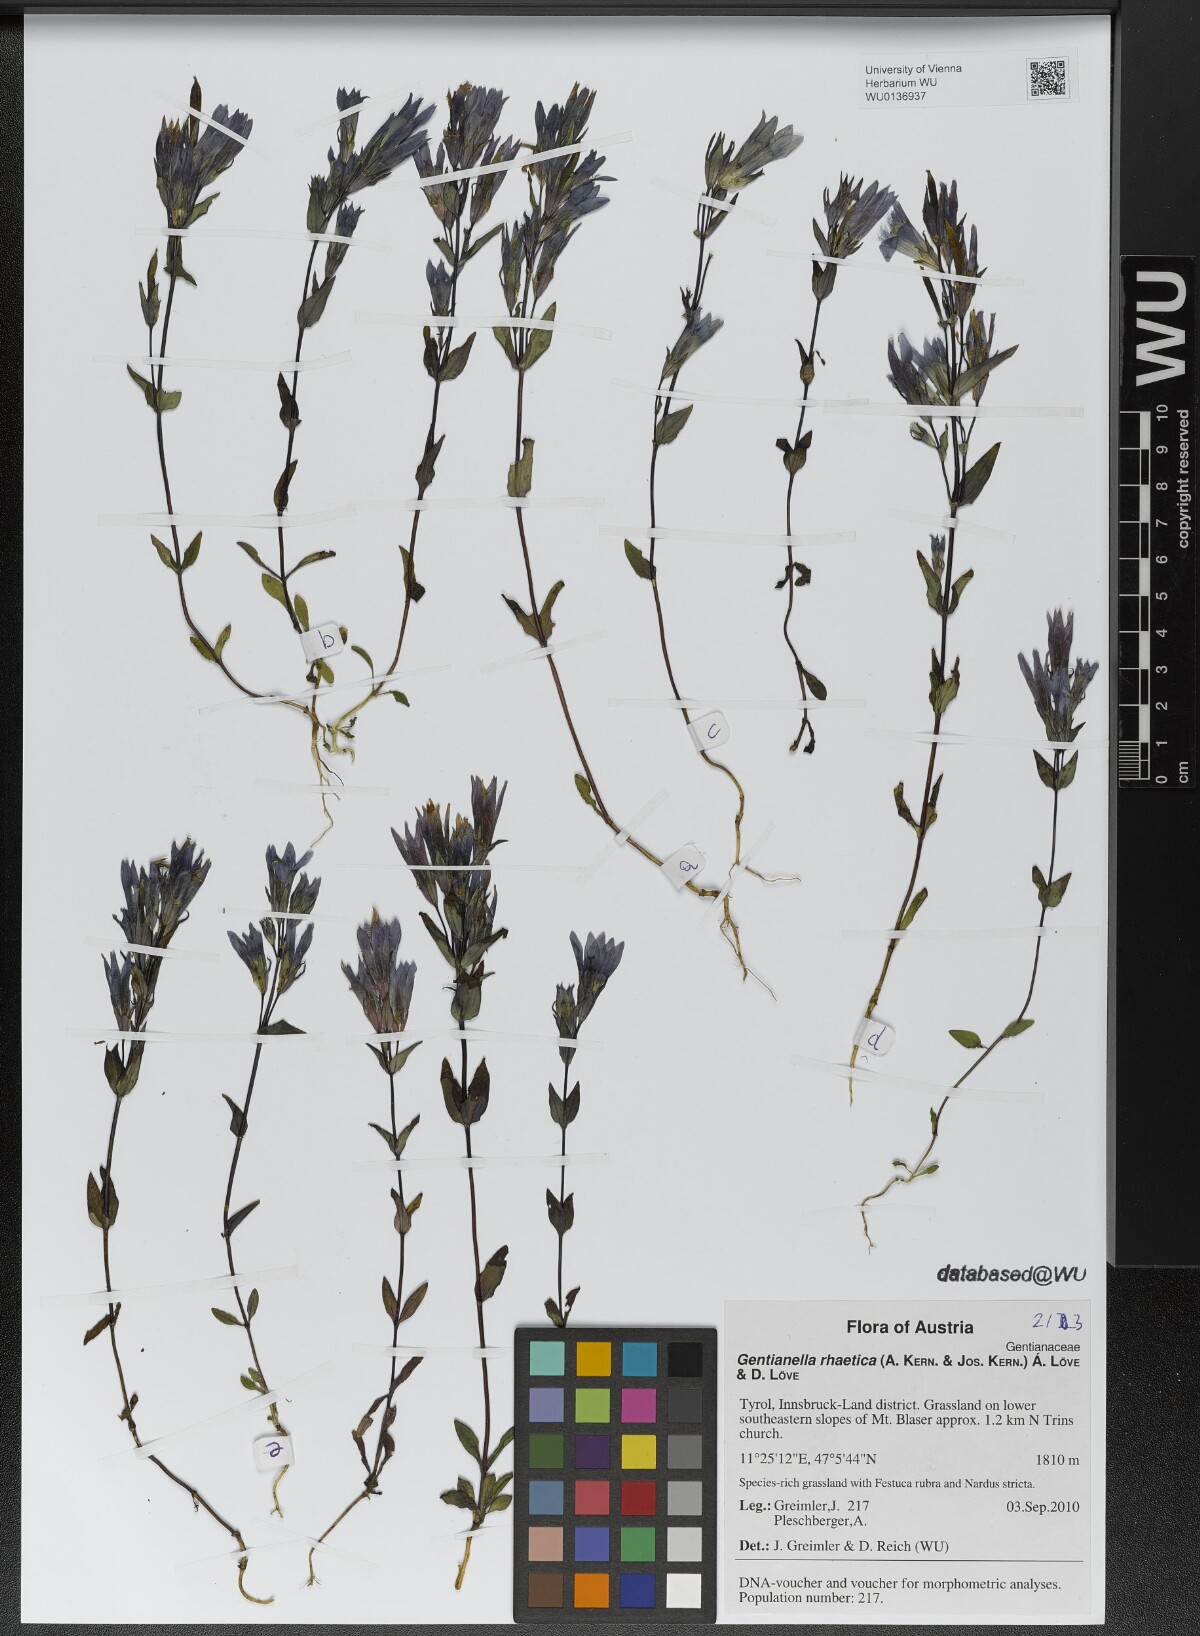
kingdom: Plantae
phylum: Tracheophyta
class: Magnoliopsida
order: Gentianales
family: Gentianaceae
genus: Gentianella
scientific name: Gentianella rhaetica
